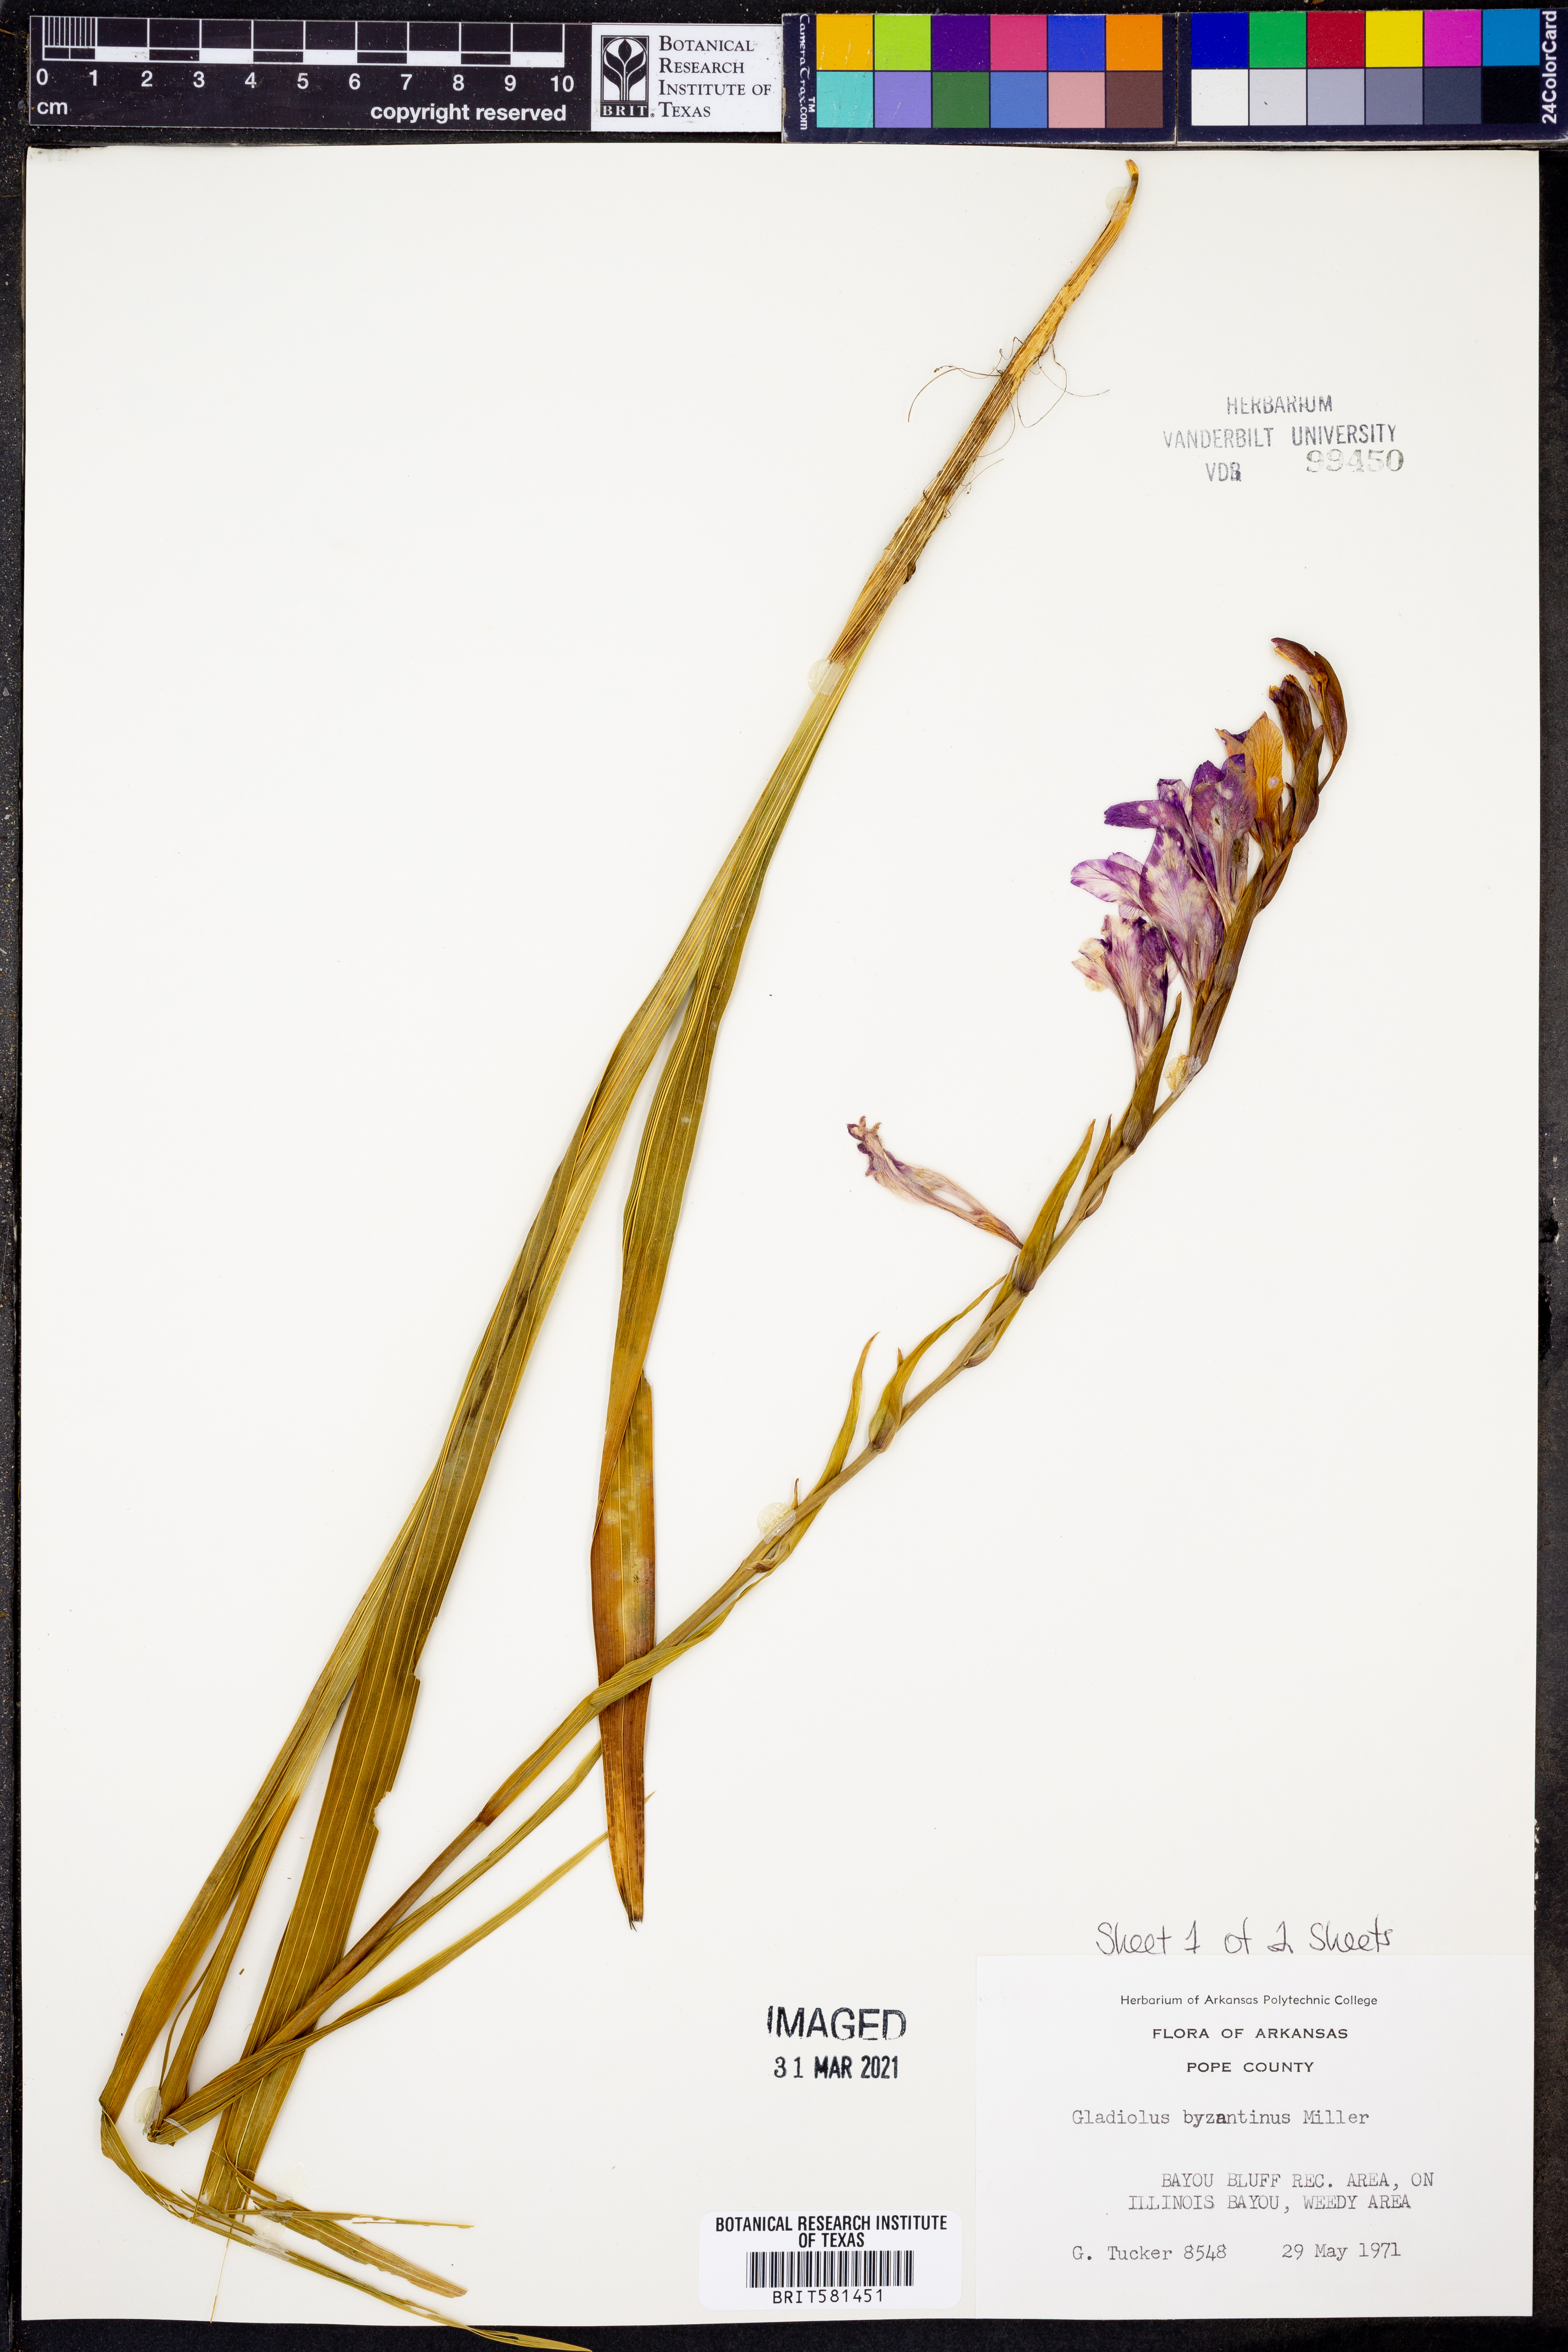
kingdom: Plantae
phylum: Tracheophyta
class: Liliopsida
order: Asparagales
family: Iridaceae
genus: Gladiolus
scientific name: Gladiolus byzantinus
